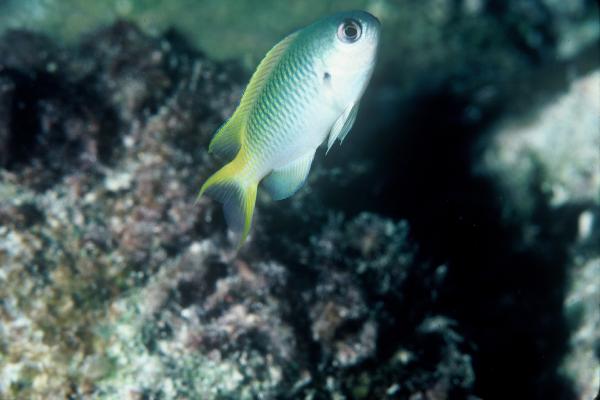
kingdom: Animalia
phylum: Chordata
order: Perciformes
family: Pomacentridae
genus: Pomachromis
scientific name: Pomachromis guamensis
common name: Guam damsel
